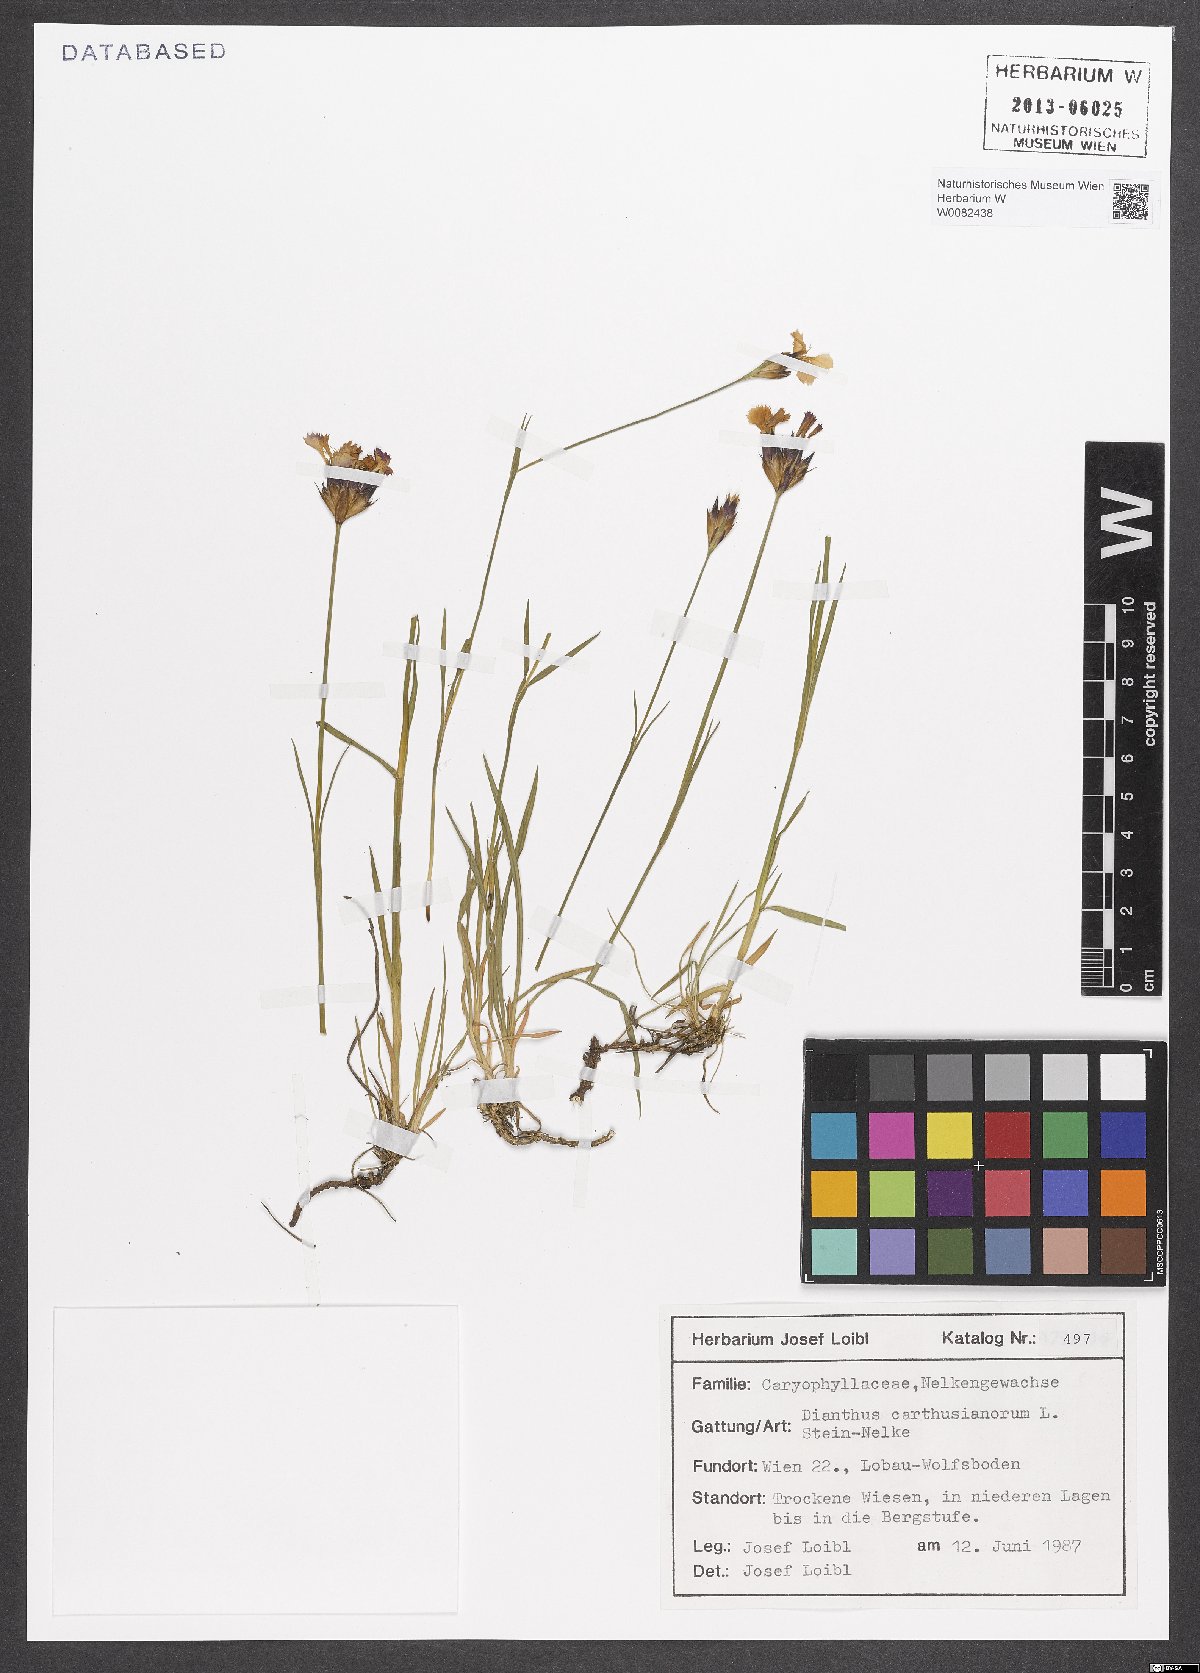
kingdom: Plantae
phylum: Tracheophyta
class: Magnoliopsida
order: Caryophyllales
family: Caryophyllaceae
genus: Dianthus
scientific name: Dianthus carthusianorum
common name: Carthusian pink
